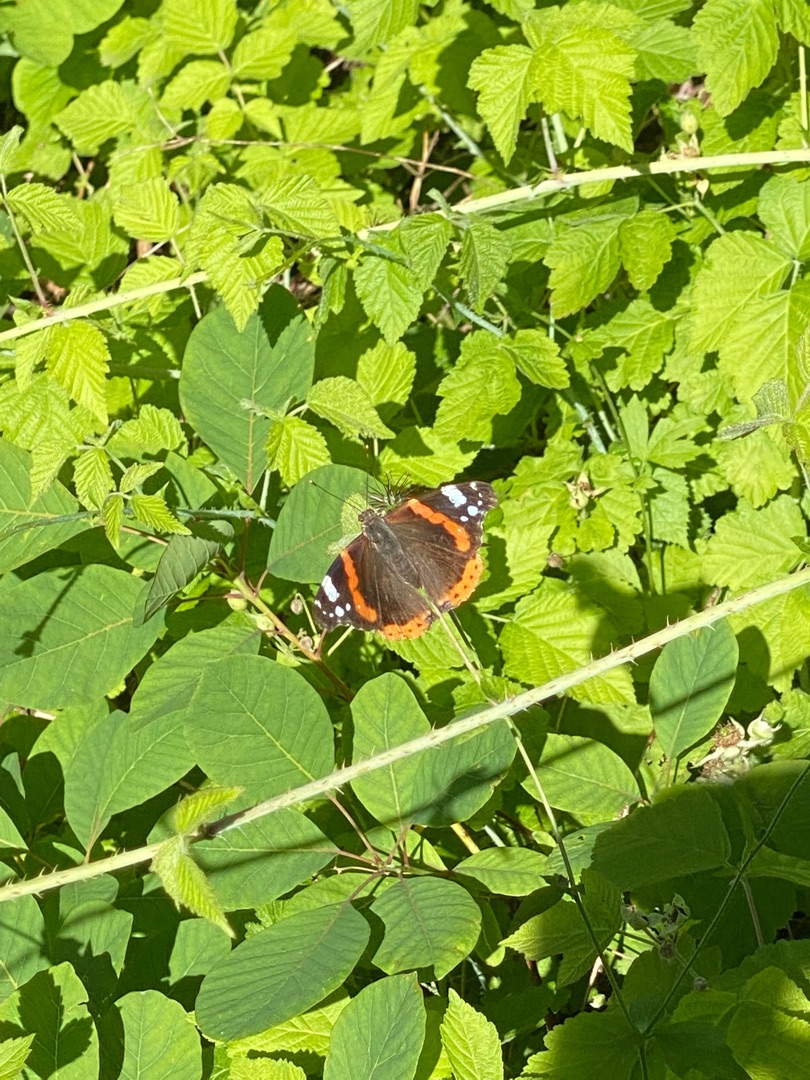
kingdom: Animalia
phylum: Arthropoda
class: Insecta
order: Lepidoptera
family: Nymphalidae
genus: Vanessa
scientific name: Vanessa atalanta
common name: Admiral
